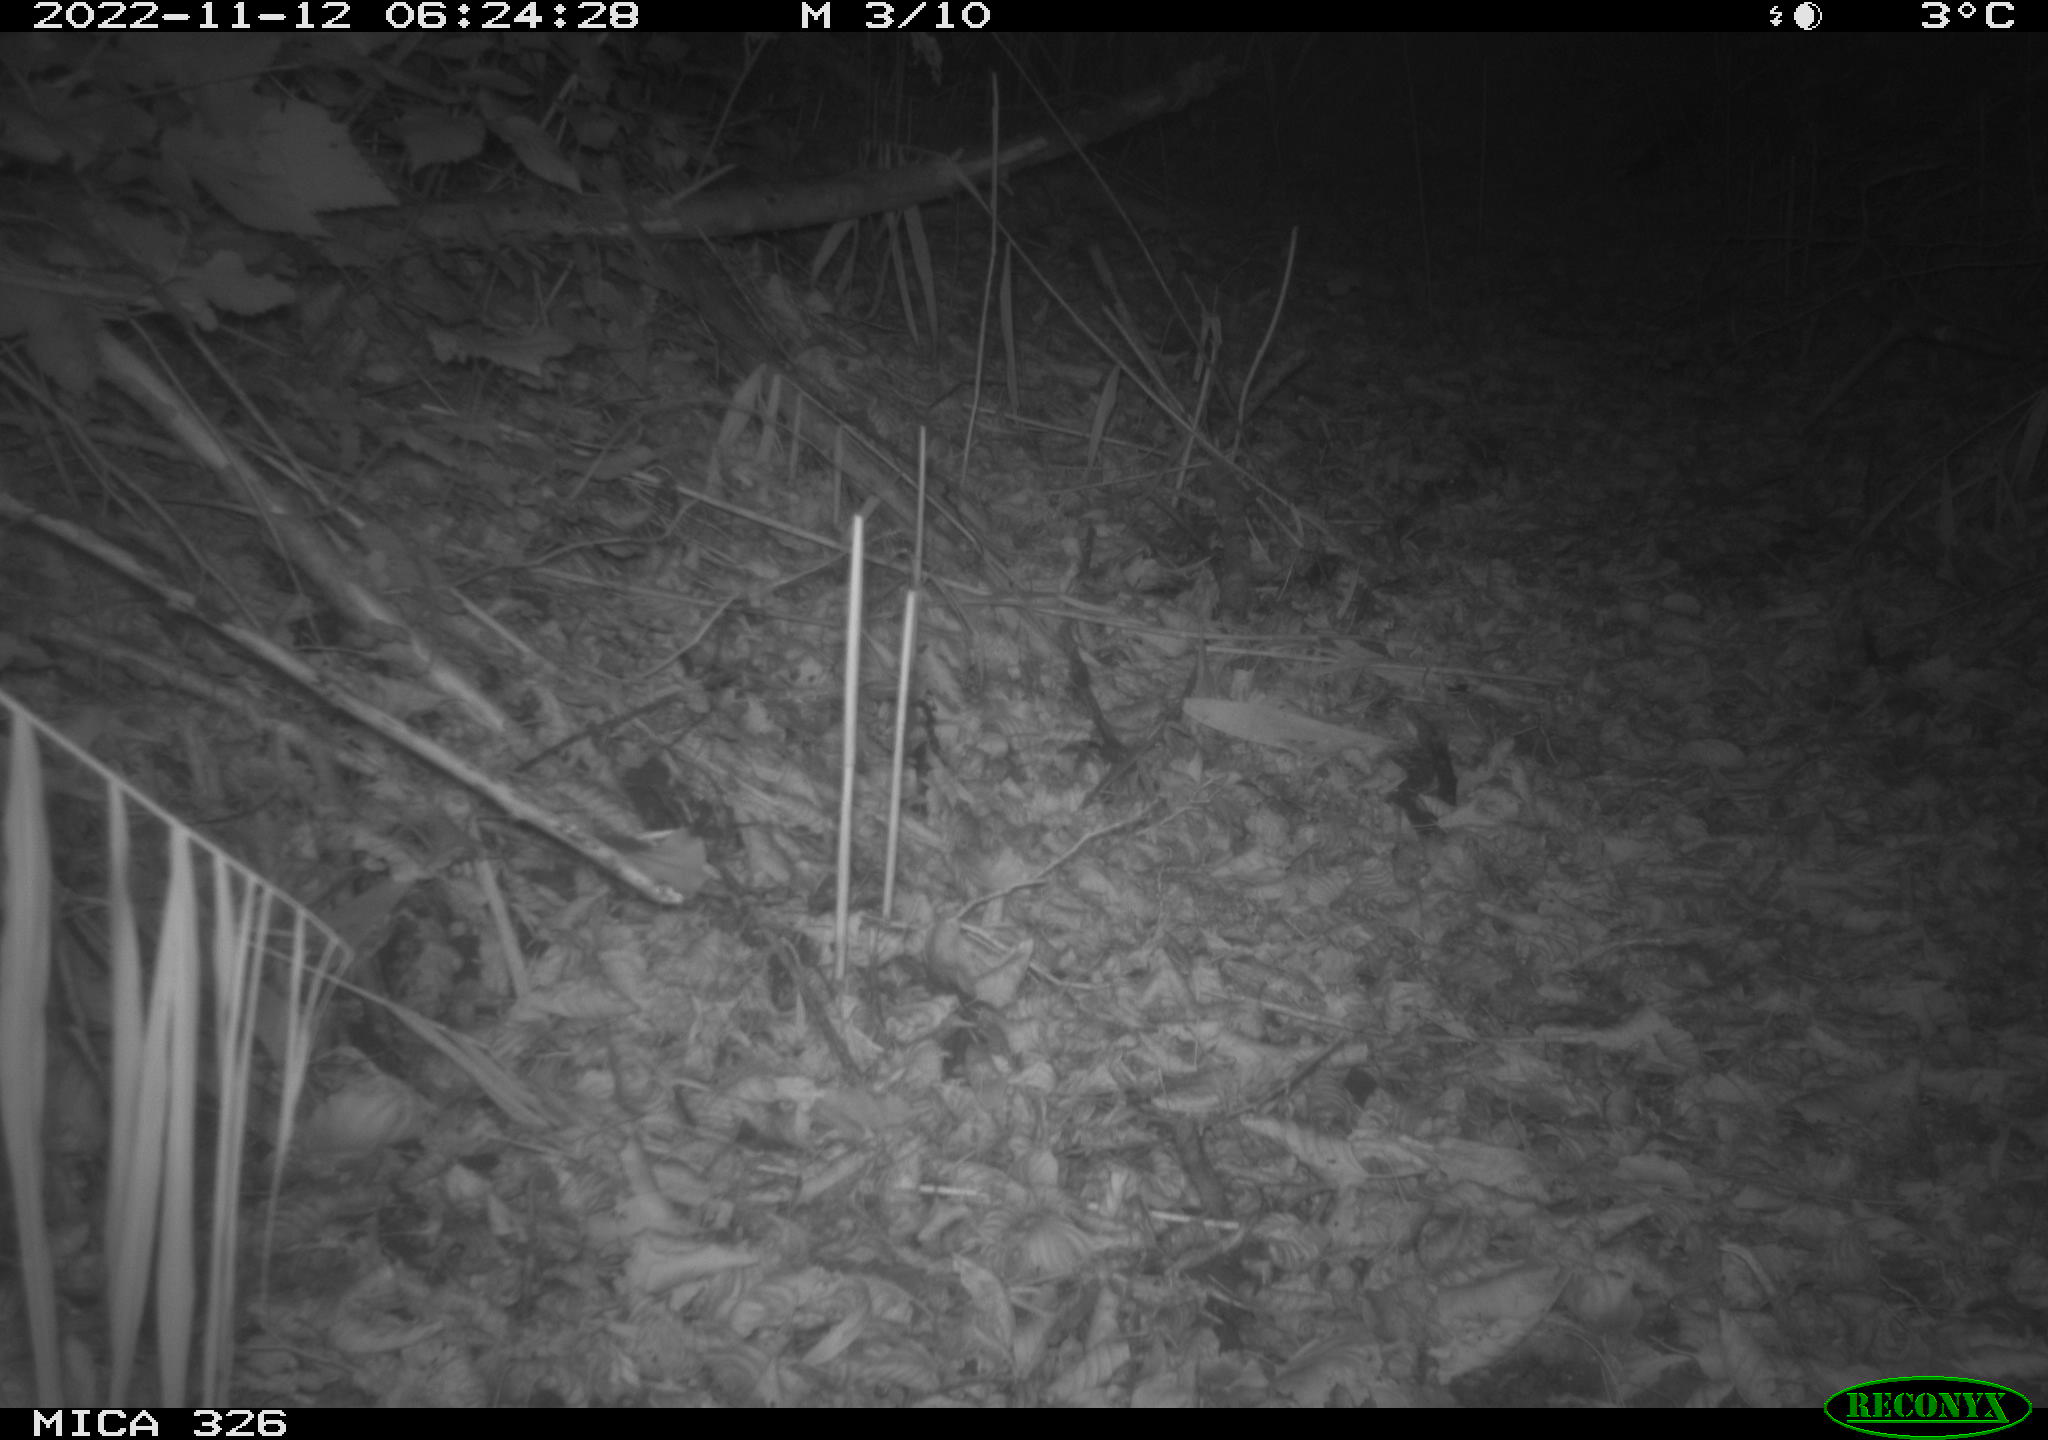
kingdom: Animalia
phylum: Chordata
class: Mammalia
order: Carnivora
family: Canidae
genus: Vulpes
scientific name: Vulpes vulpes
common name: Red fox
